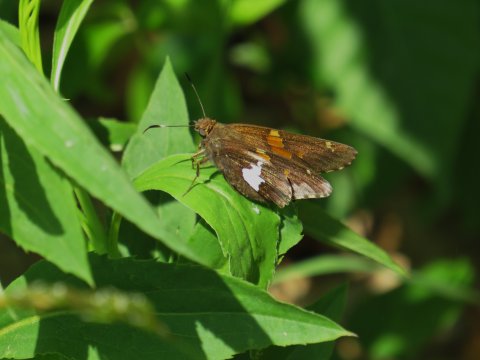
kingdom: Animalia
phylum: Arthropoda
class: Insecta
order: Lepidoptera
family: Hesperiidae
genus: Epargyreus
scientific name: Epargyreus clarus
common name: Silver-spotted Skipper
